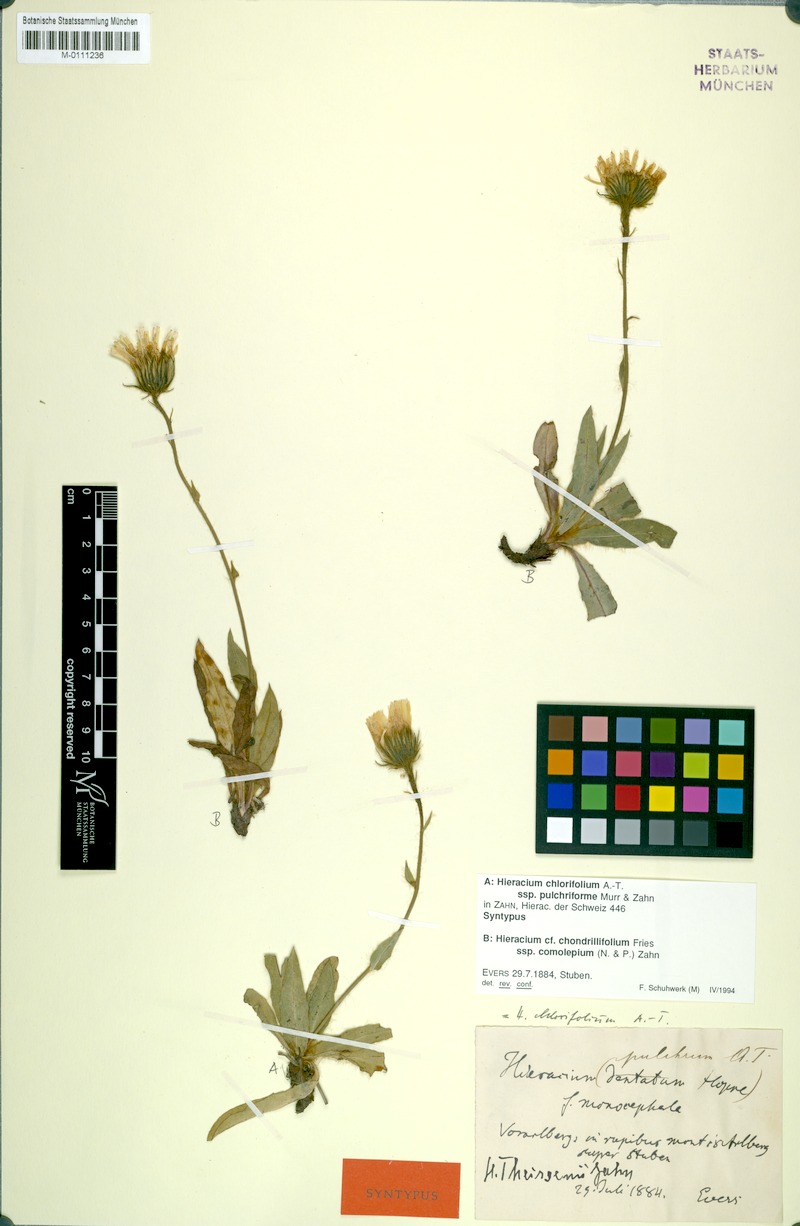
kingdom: Plantae
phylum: Tracheophyta
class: Magnoliopsida
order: Asterales
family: Asteraceae
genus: Hieracium
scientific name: Hieracium chlorifolium
